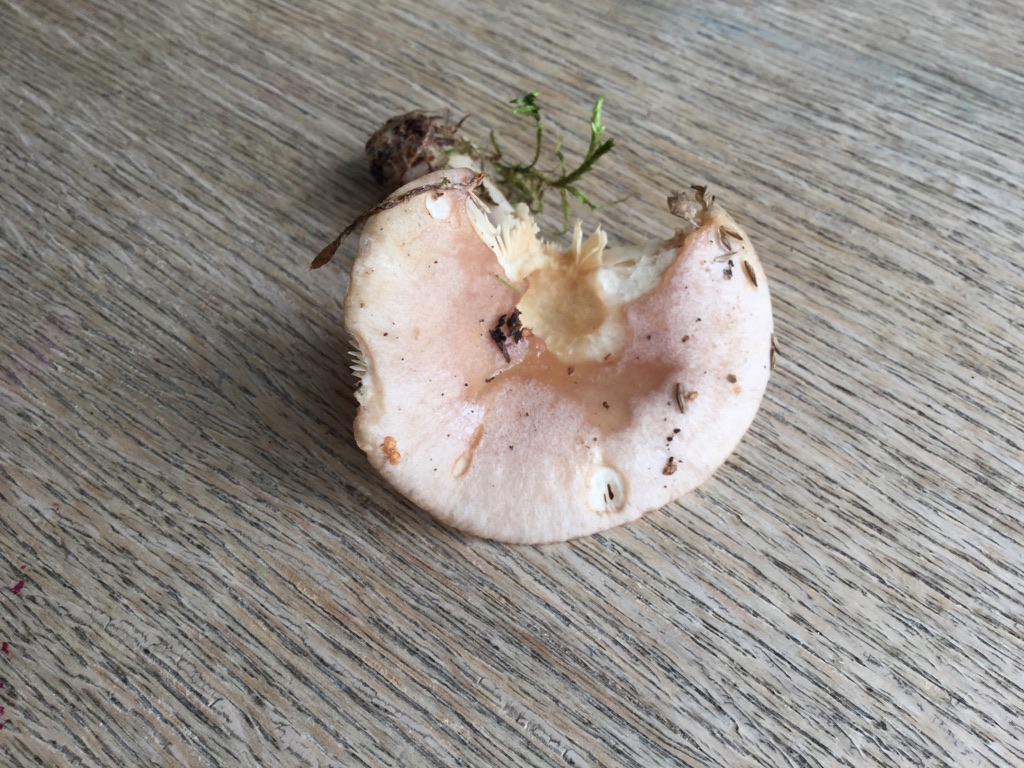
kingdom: Fungi
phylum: Basidiomycota
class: Agaricomycetes
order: Russulales
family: Russulaceae
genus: Lactarius
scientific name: Lactarius trivialis
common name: nordisk mælkehat
